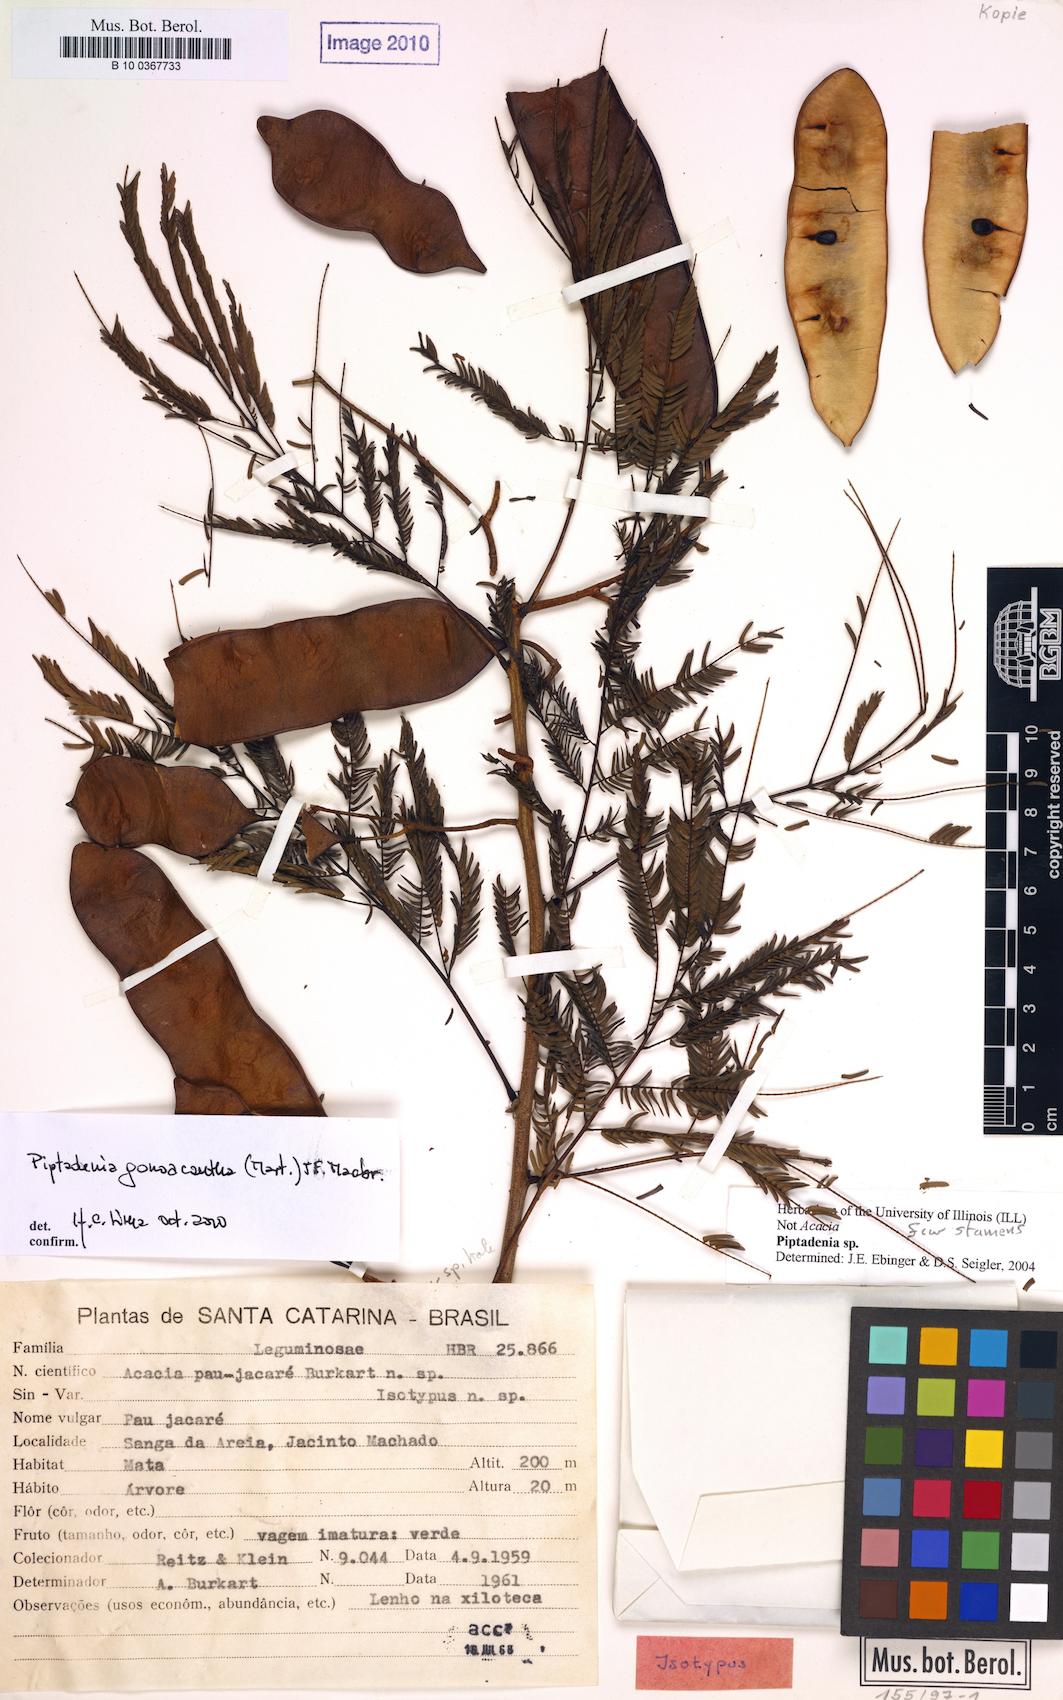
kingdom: Plantae
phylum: Tracheophyta
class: Magnoliopsida
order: Fabales
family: Fabaceae
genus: Piptadenia
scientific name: Piptadenia gonoacantha
